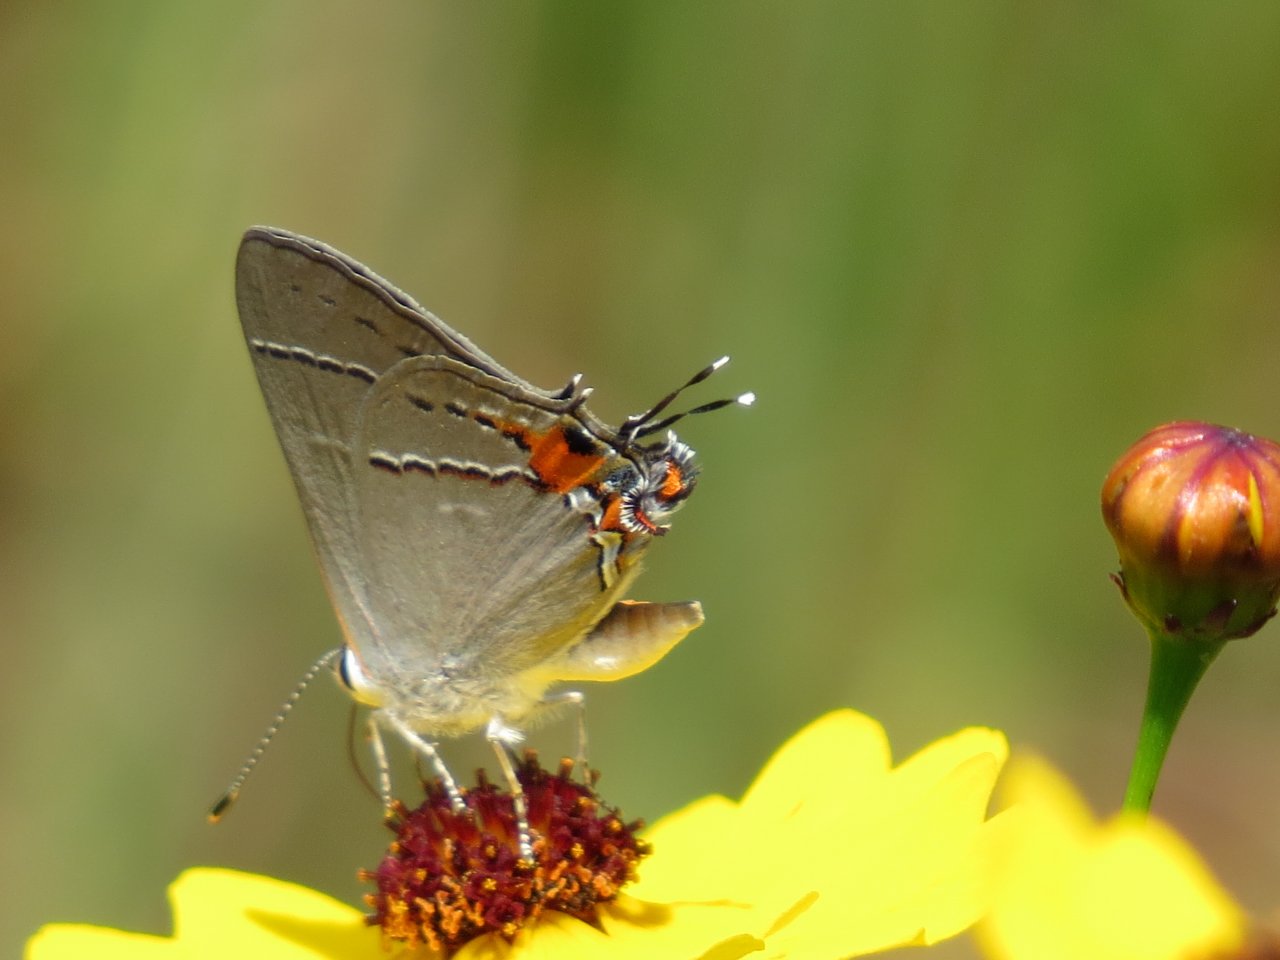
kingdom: Animalia
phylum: Arthropoda
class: Insecta
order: Lepidoptera
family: Lycaenidae
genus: Strymon
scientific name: Strymon melinus
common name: Gray Hairstreak
